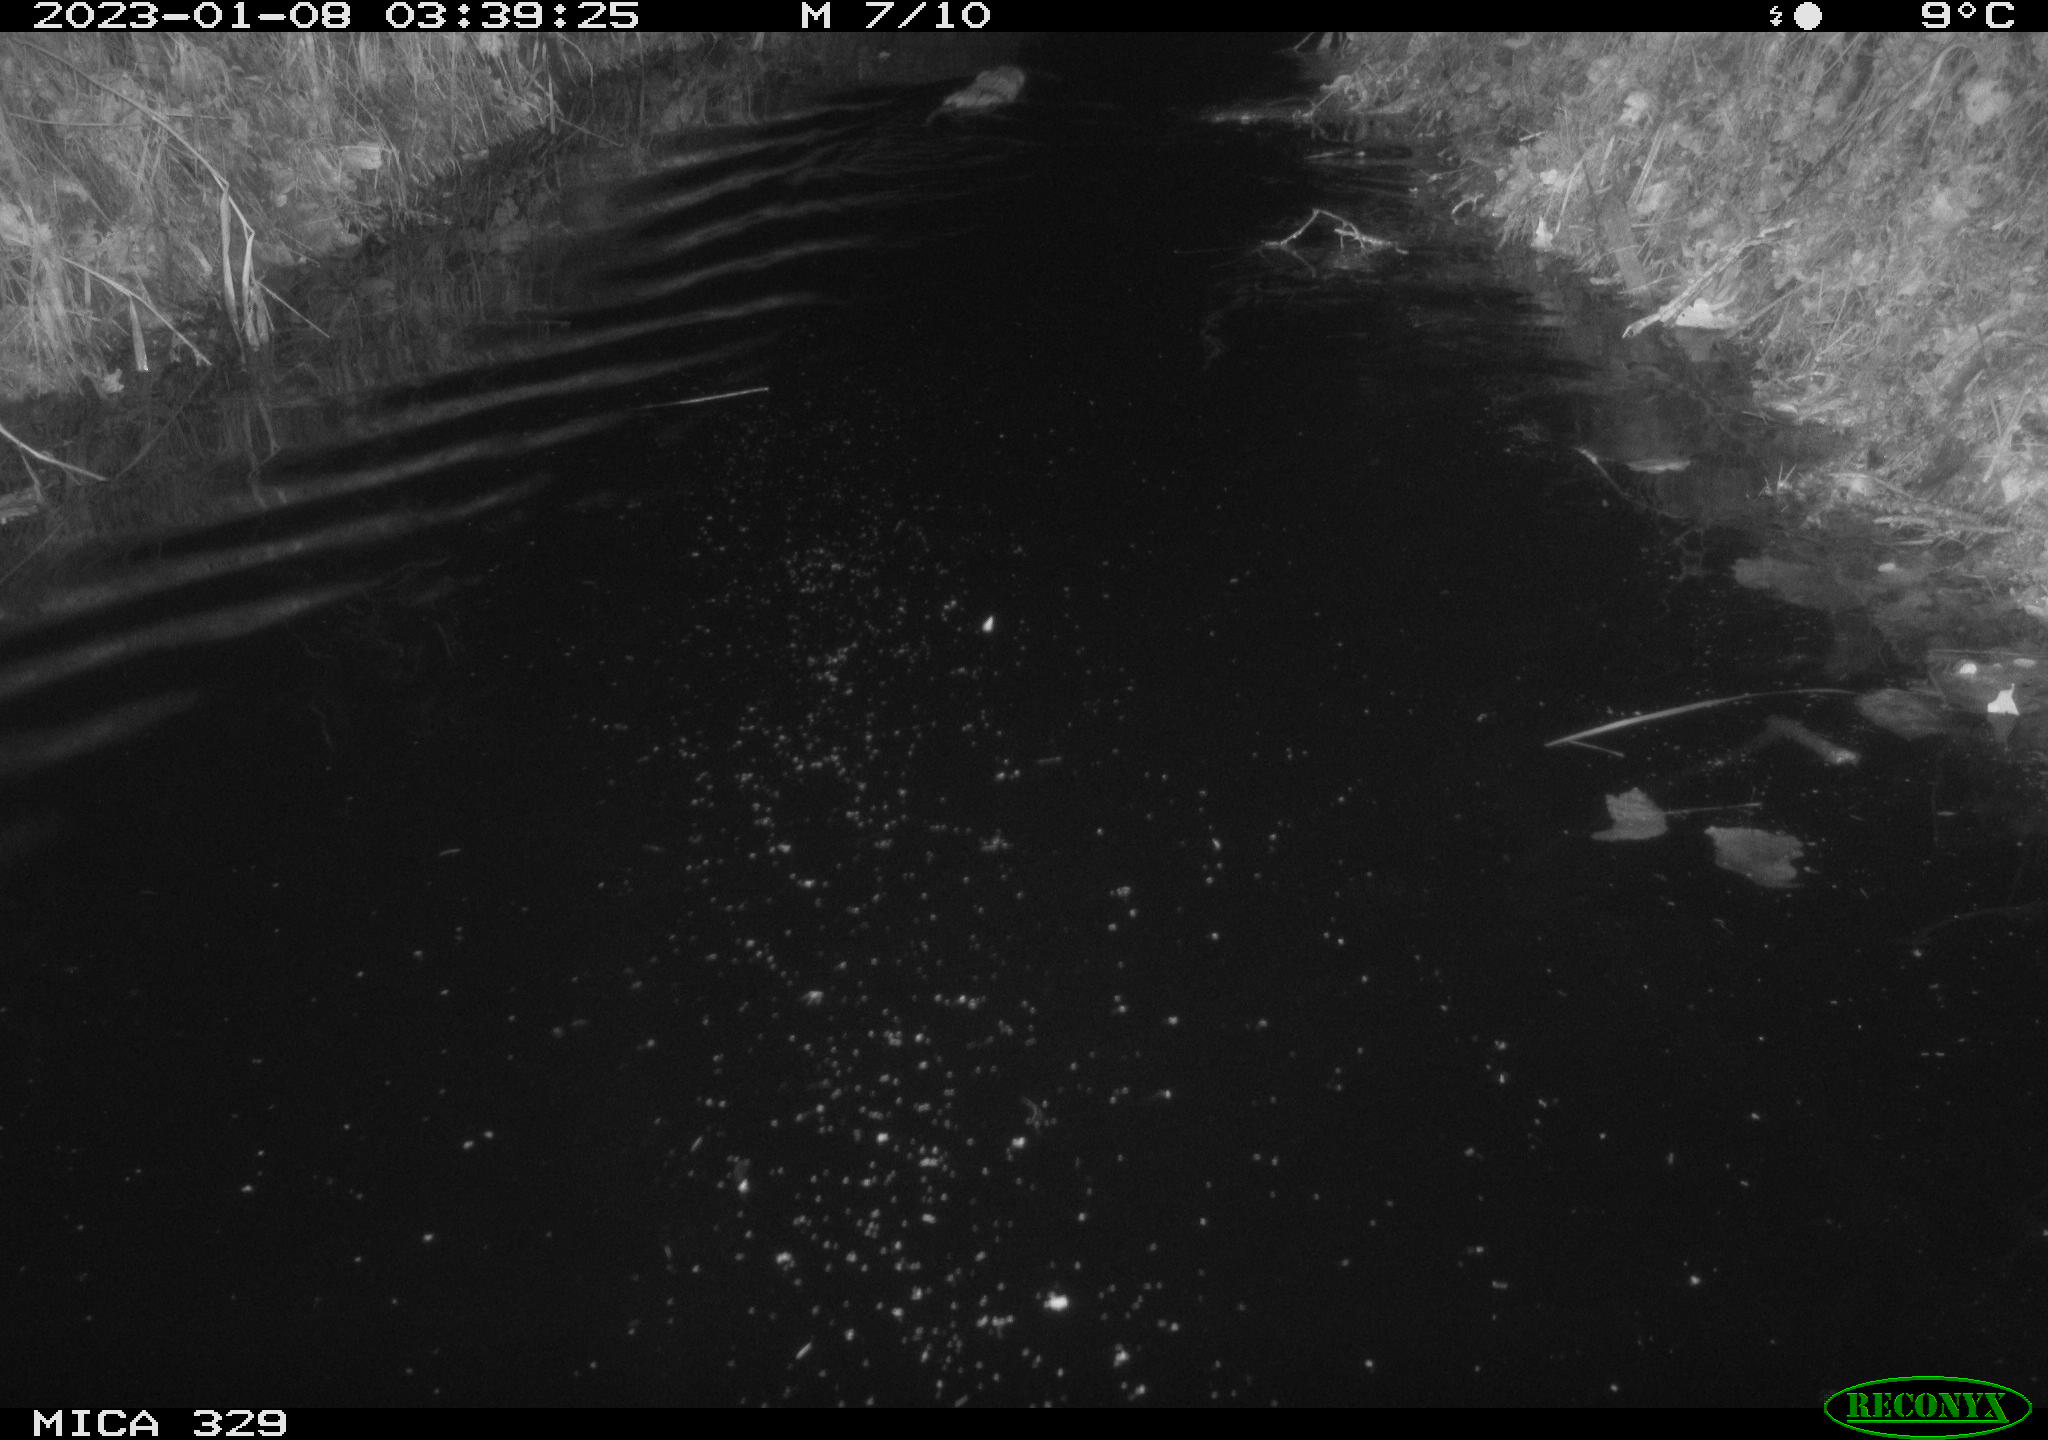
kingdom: Animalia
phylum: Chordata
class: Mammalia
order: Rodentia
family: Cricetidae
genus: Ondatra
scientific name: Ondatra zibethicus
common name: Muskrat
